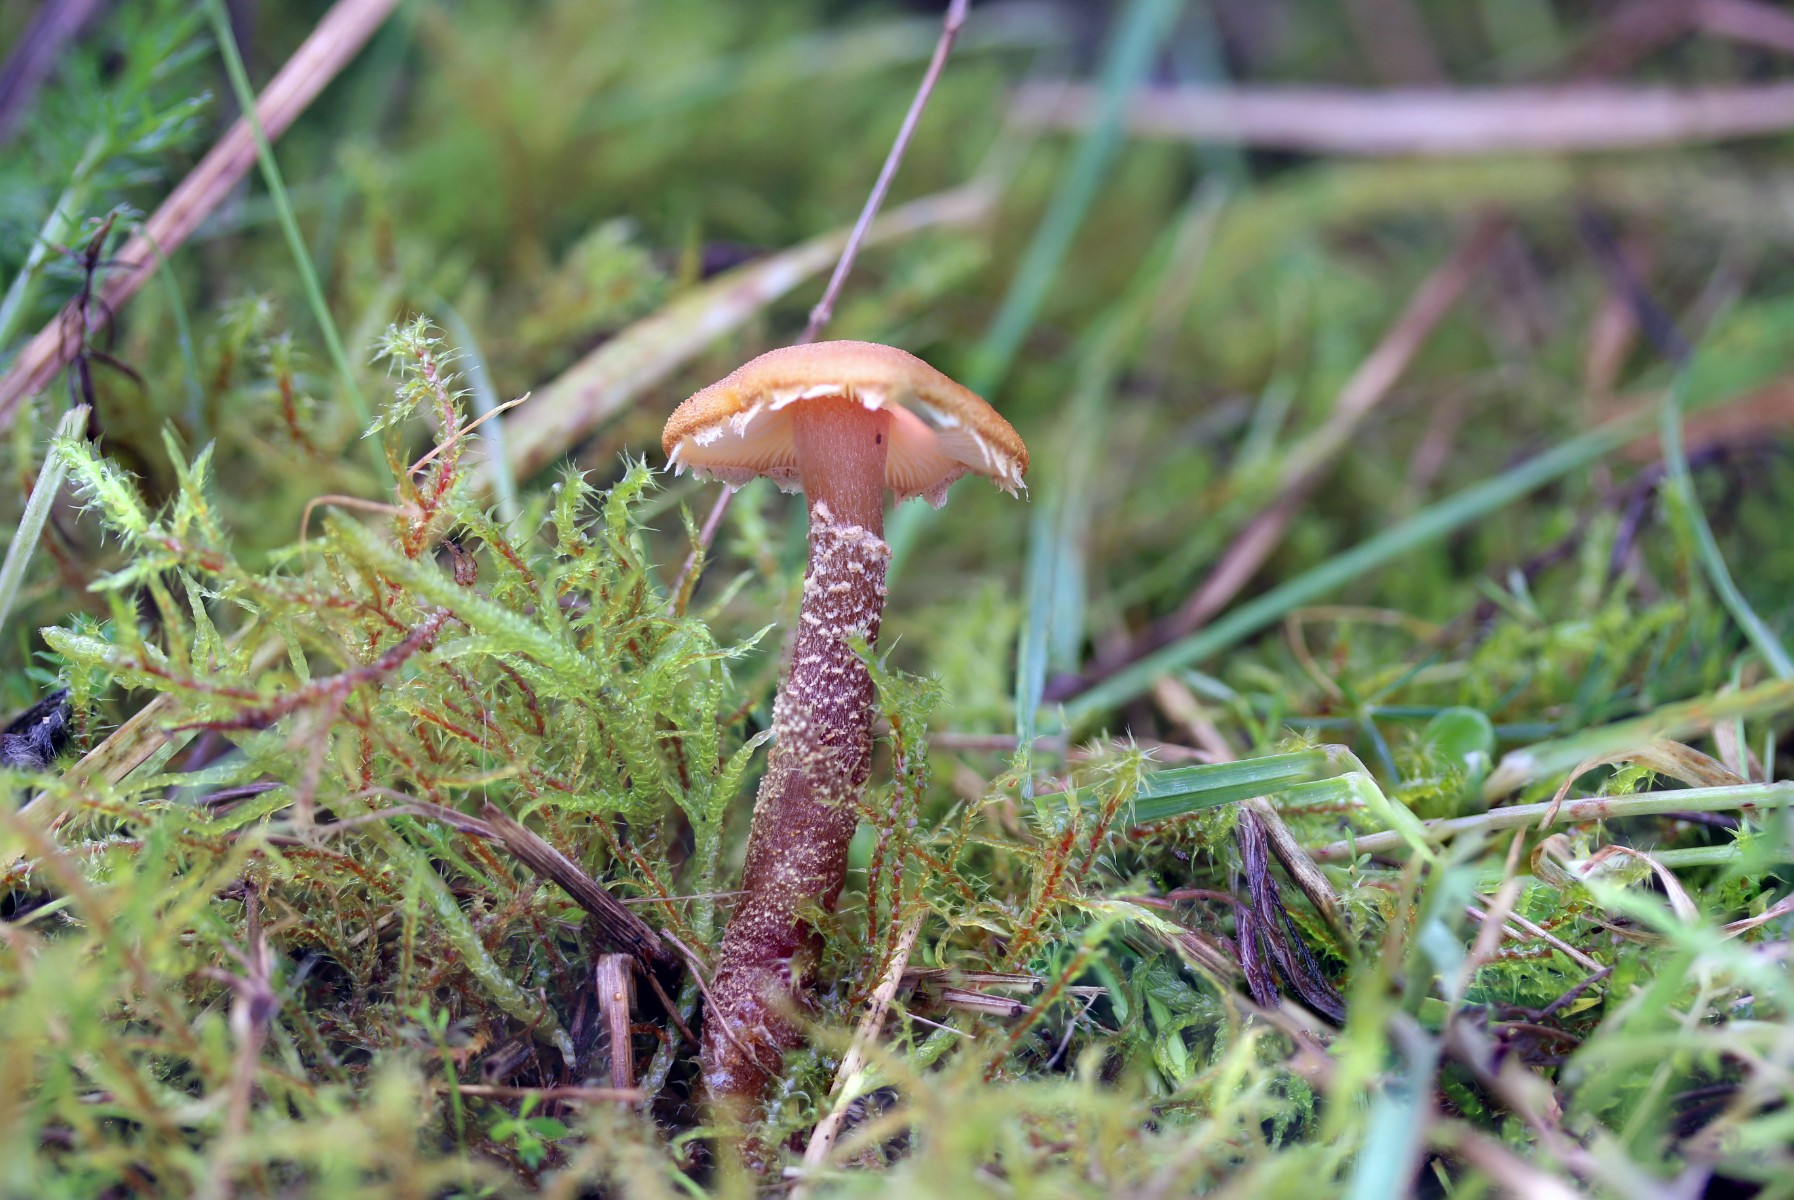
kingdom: Fungi
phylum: Basidiomycota
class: Agaricomycetes
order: Agaricales
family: Agaricaceae
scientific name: Agaricaceae
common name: champignonfamilien
